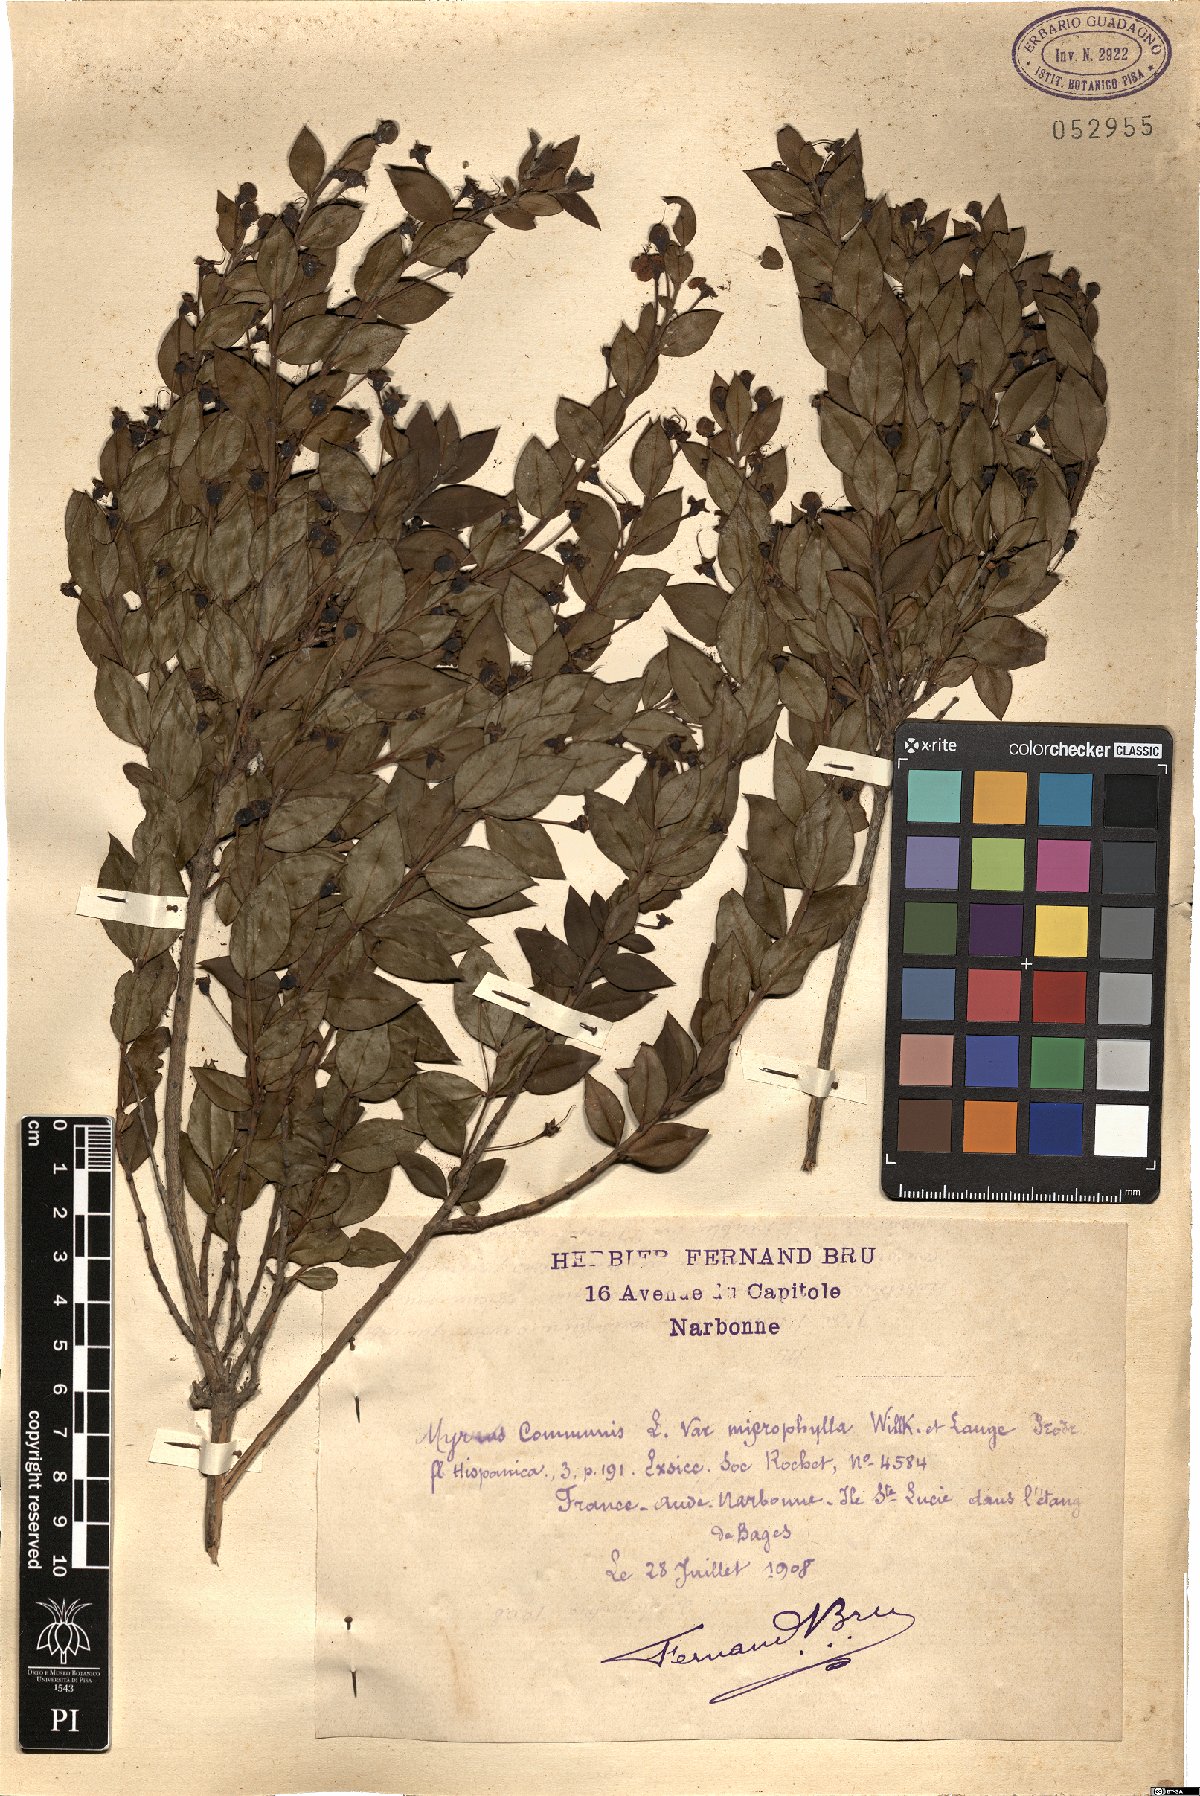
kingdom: Plantae
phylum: Tracheophyta
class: Magnoliopsida
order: Myrtales
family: Myrtaceae
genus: Myrtus
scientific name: Myrtus communis
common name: Myrtle
